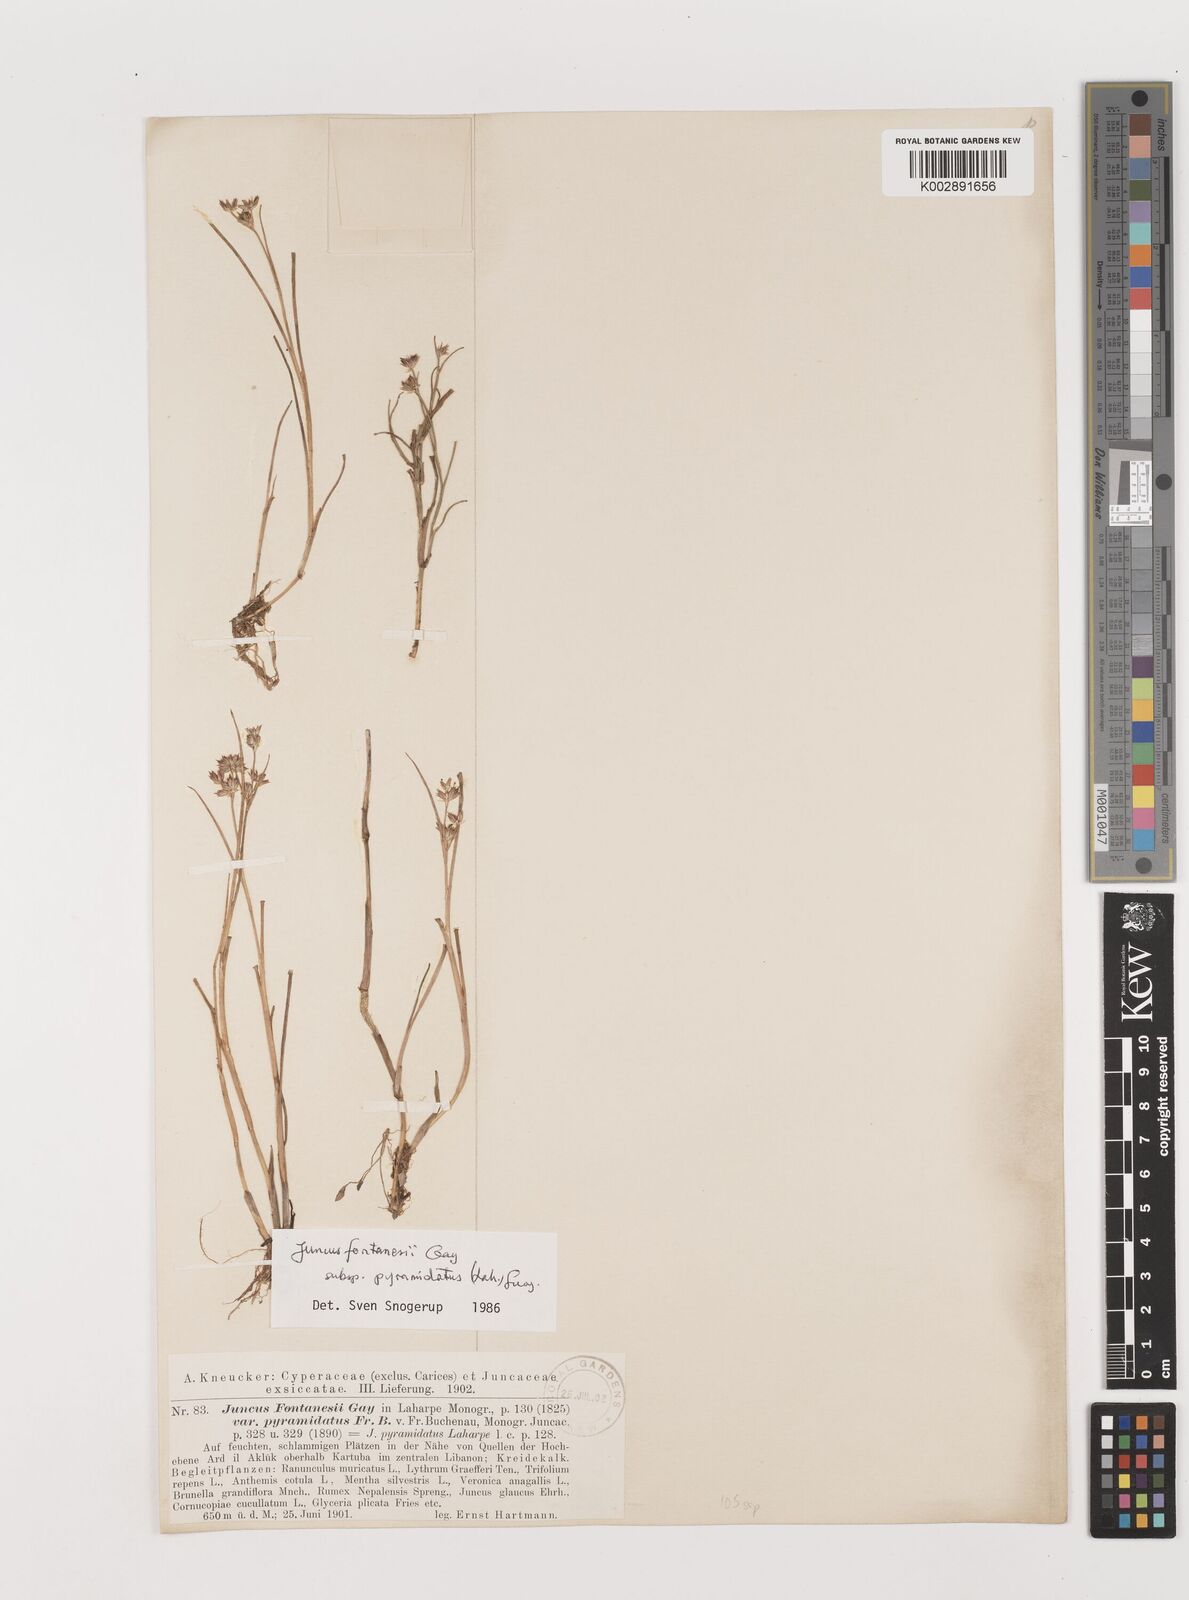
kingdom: Plantae
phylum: Tracheophyta
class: Liliopsida
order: Poales
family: Juncaceae
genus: Juncus
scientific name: Juncus fontanesii
